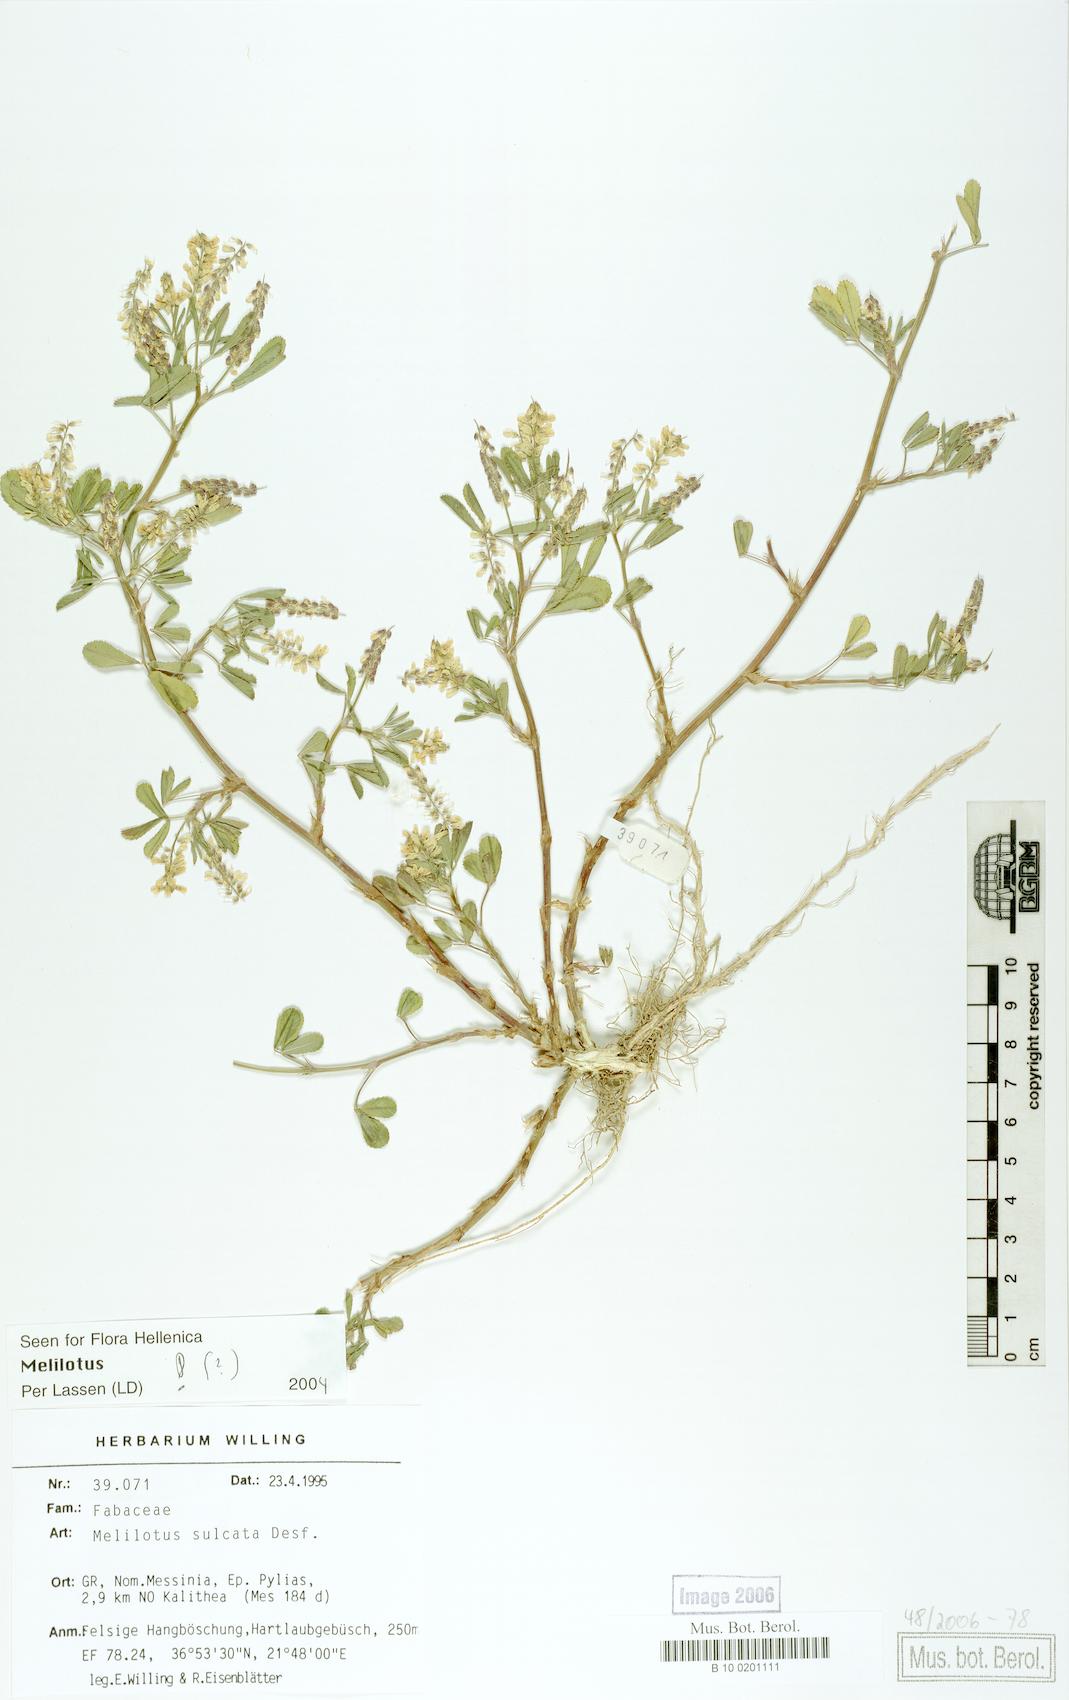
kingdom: Plantae
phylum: Tracheophyta
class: Magnoliopsida
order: Fabales
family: Fabaceae
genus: Melilotus
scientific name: Melilotus sulcatus
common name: Furrowed melilot
